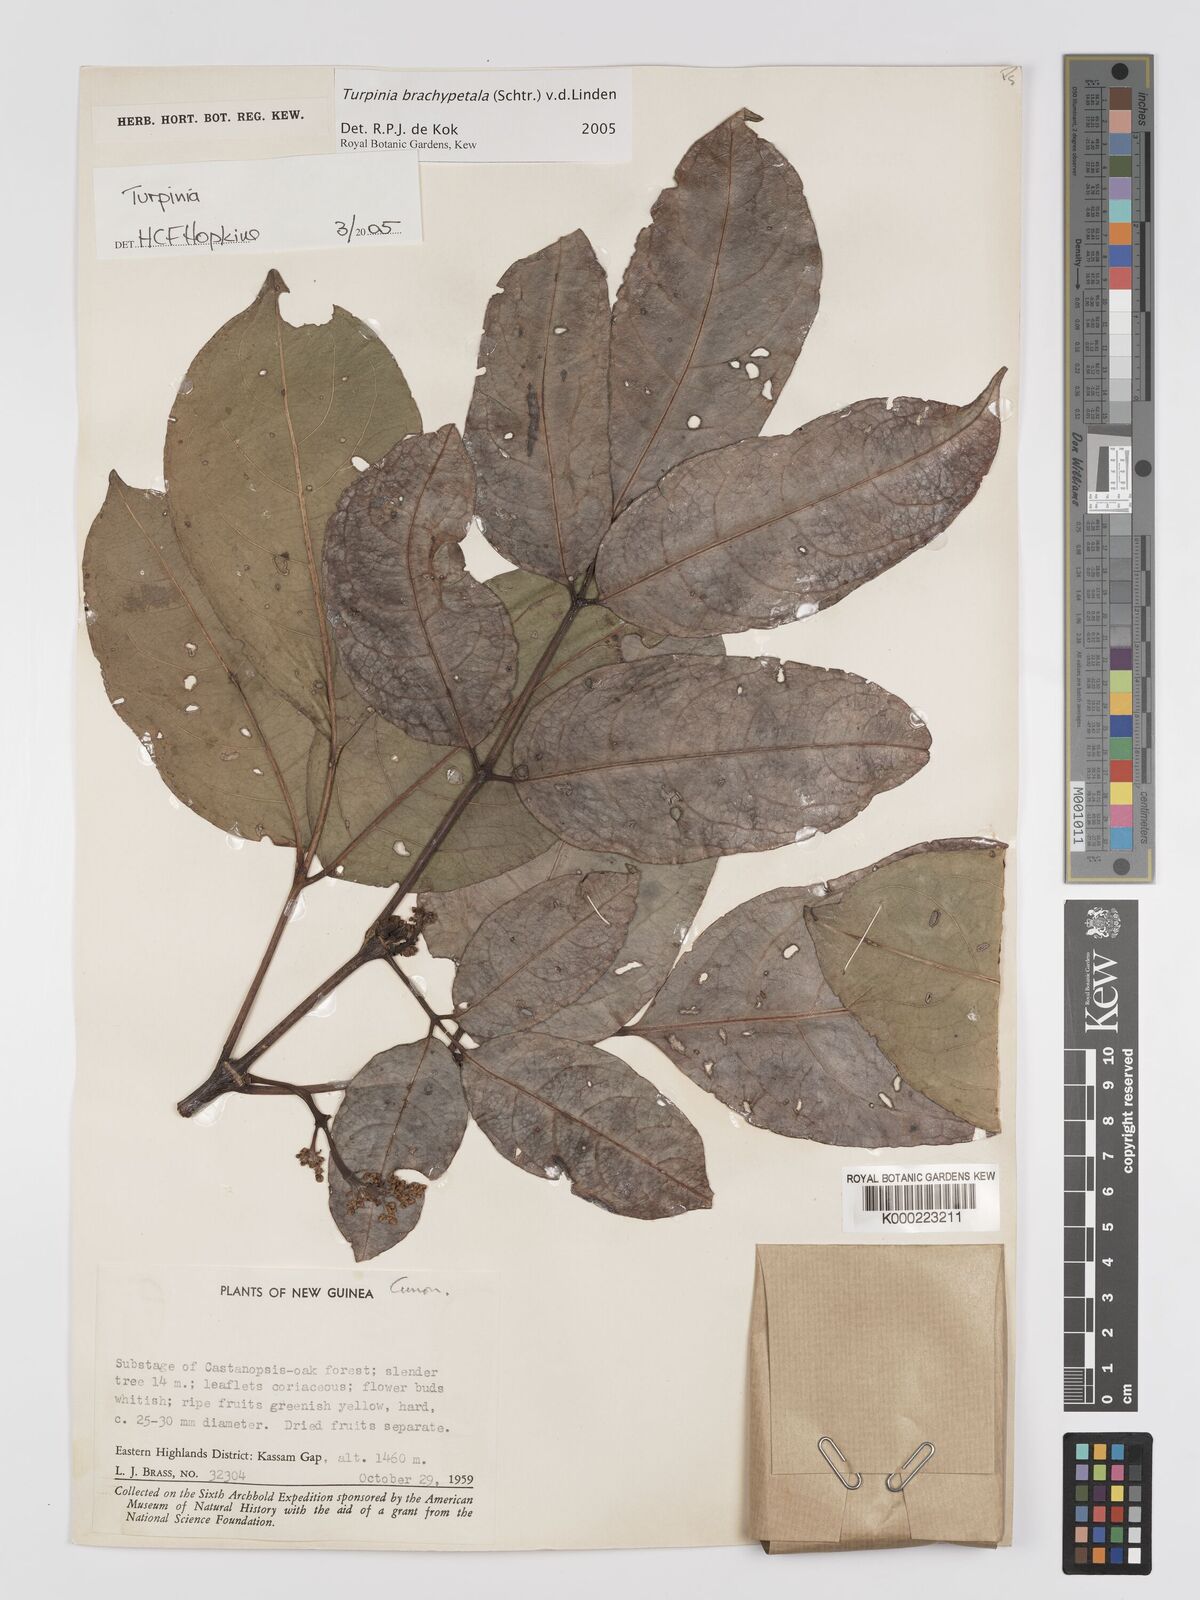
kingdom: Plantae
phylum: Tracheophyta
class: Magnoliopsida
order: Crossosomatales
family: Staphyleaceae
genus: Turpinia
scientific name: Turpinia brachypetala
